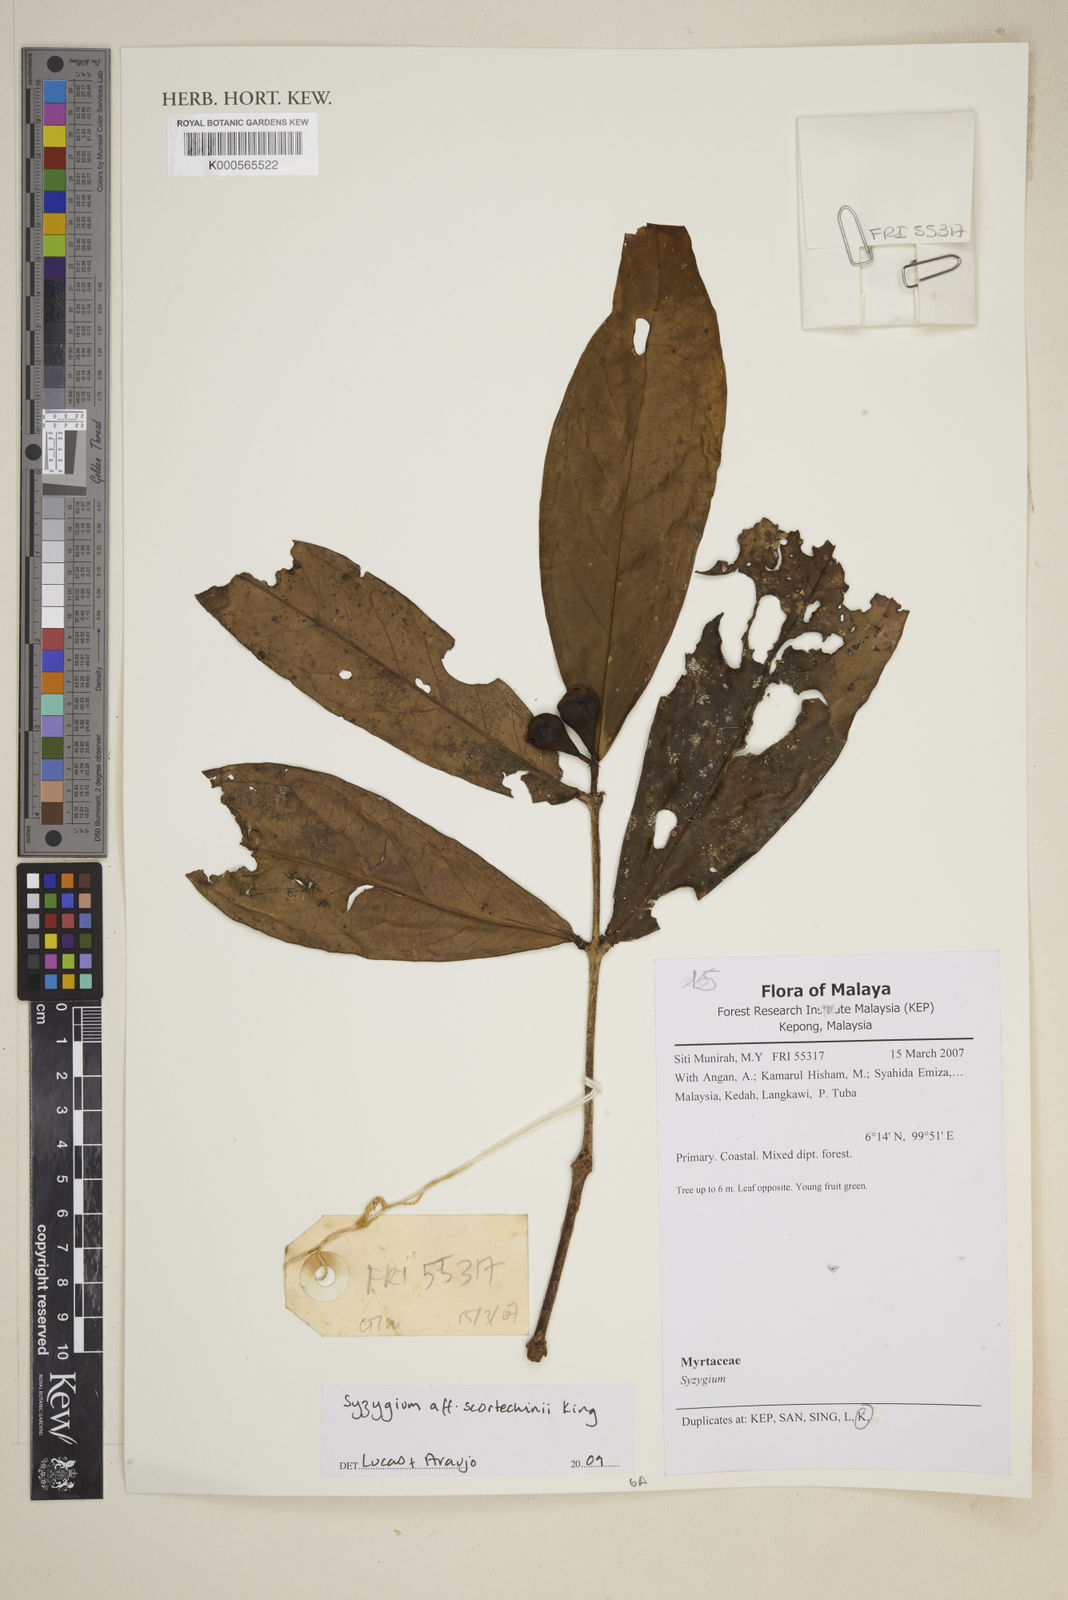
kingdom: Plantae
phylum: Tracheophyta
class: Magnoliopsida
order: Myrtales
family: Myrtaceae
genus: Syzygium
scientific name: Syzygium scortechinii
